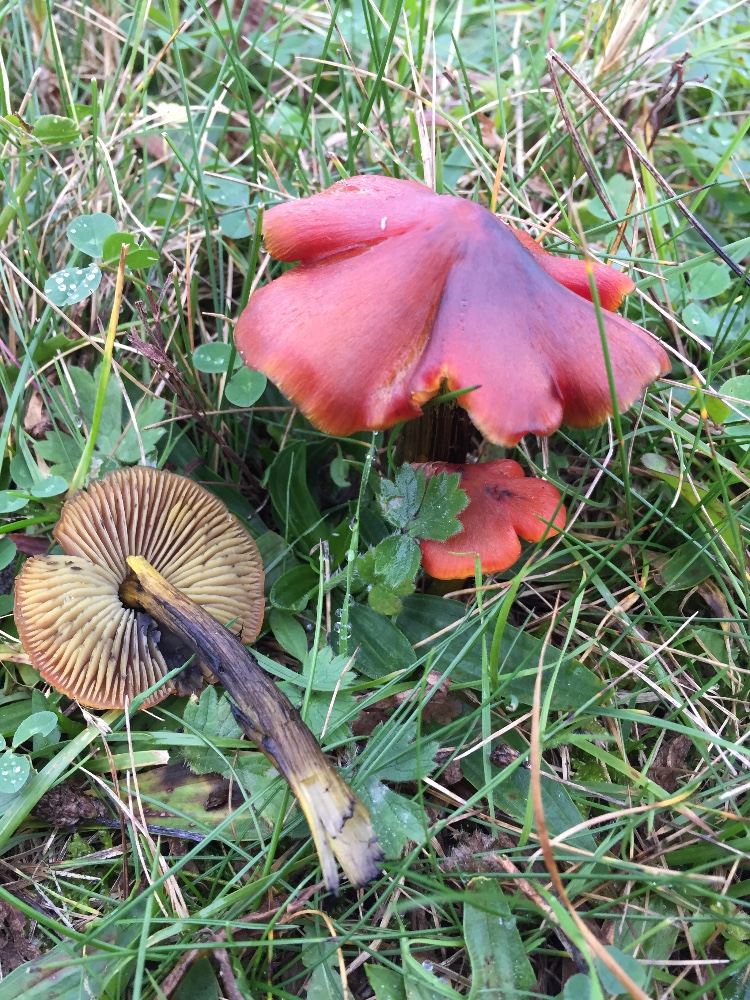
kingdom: Fungi
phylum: Basidiomycota
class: Agaricomycetes
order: Agaricales
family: Hygrophoraceae
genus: Hygrocybe
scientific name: Hygrocybe conica
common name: kegle-vokshat
